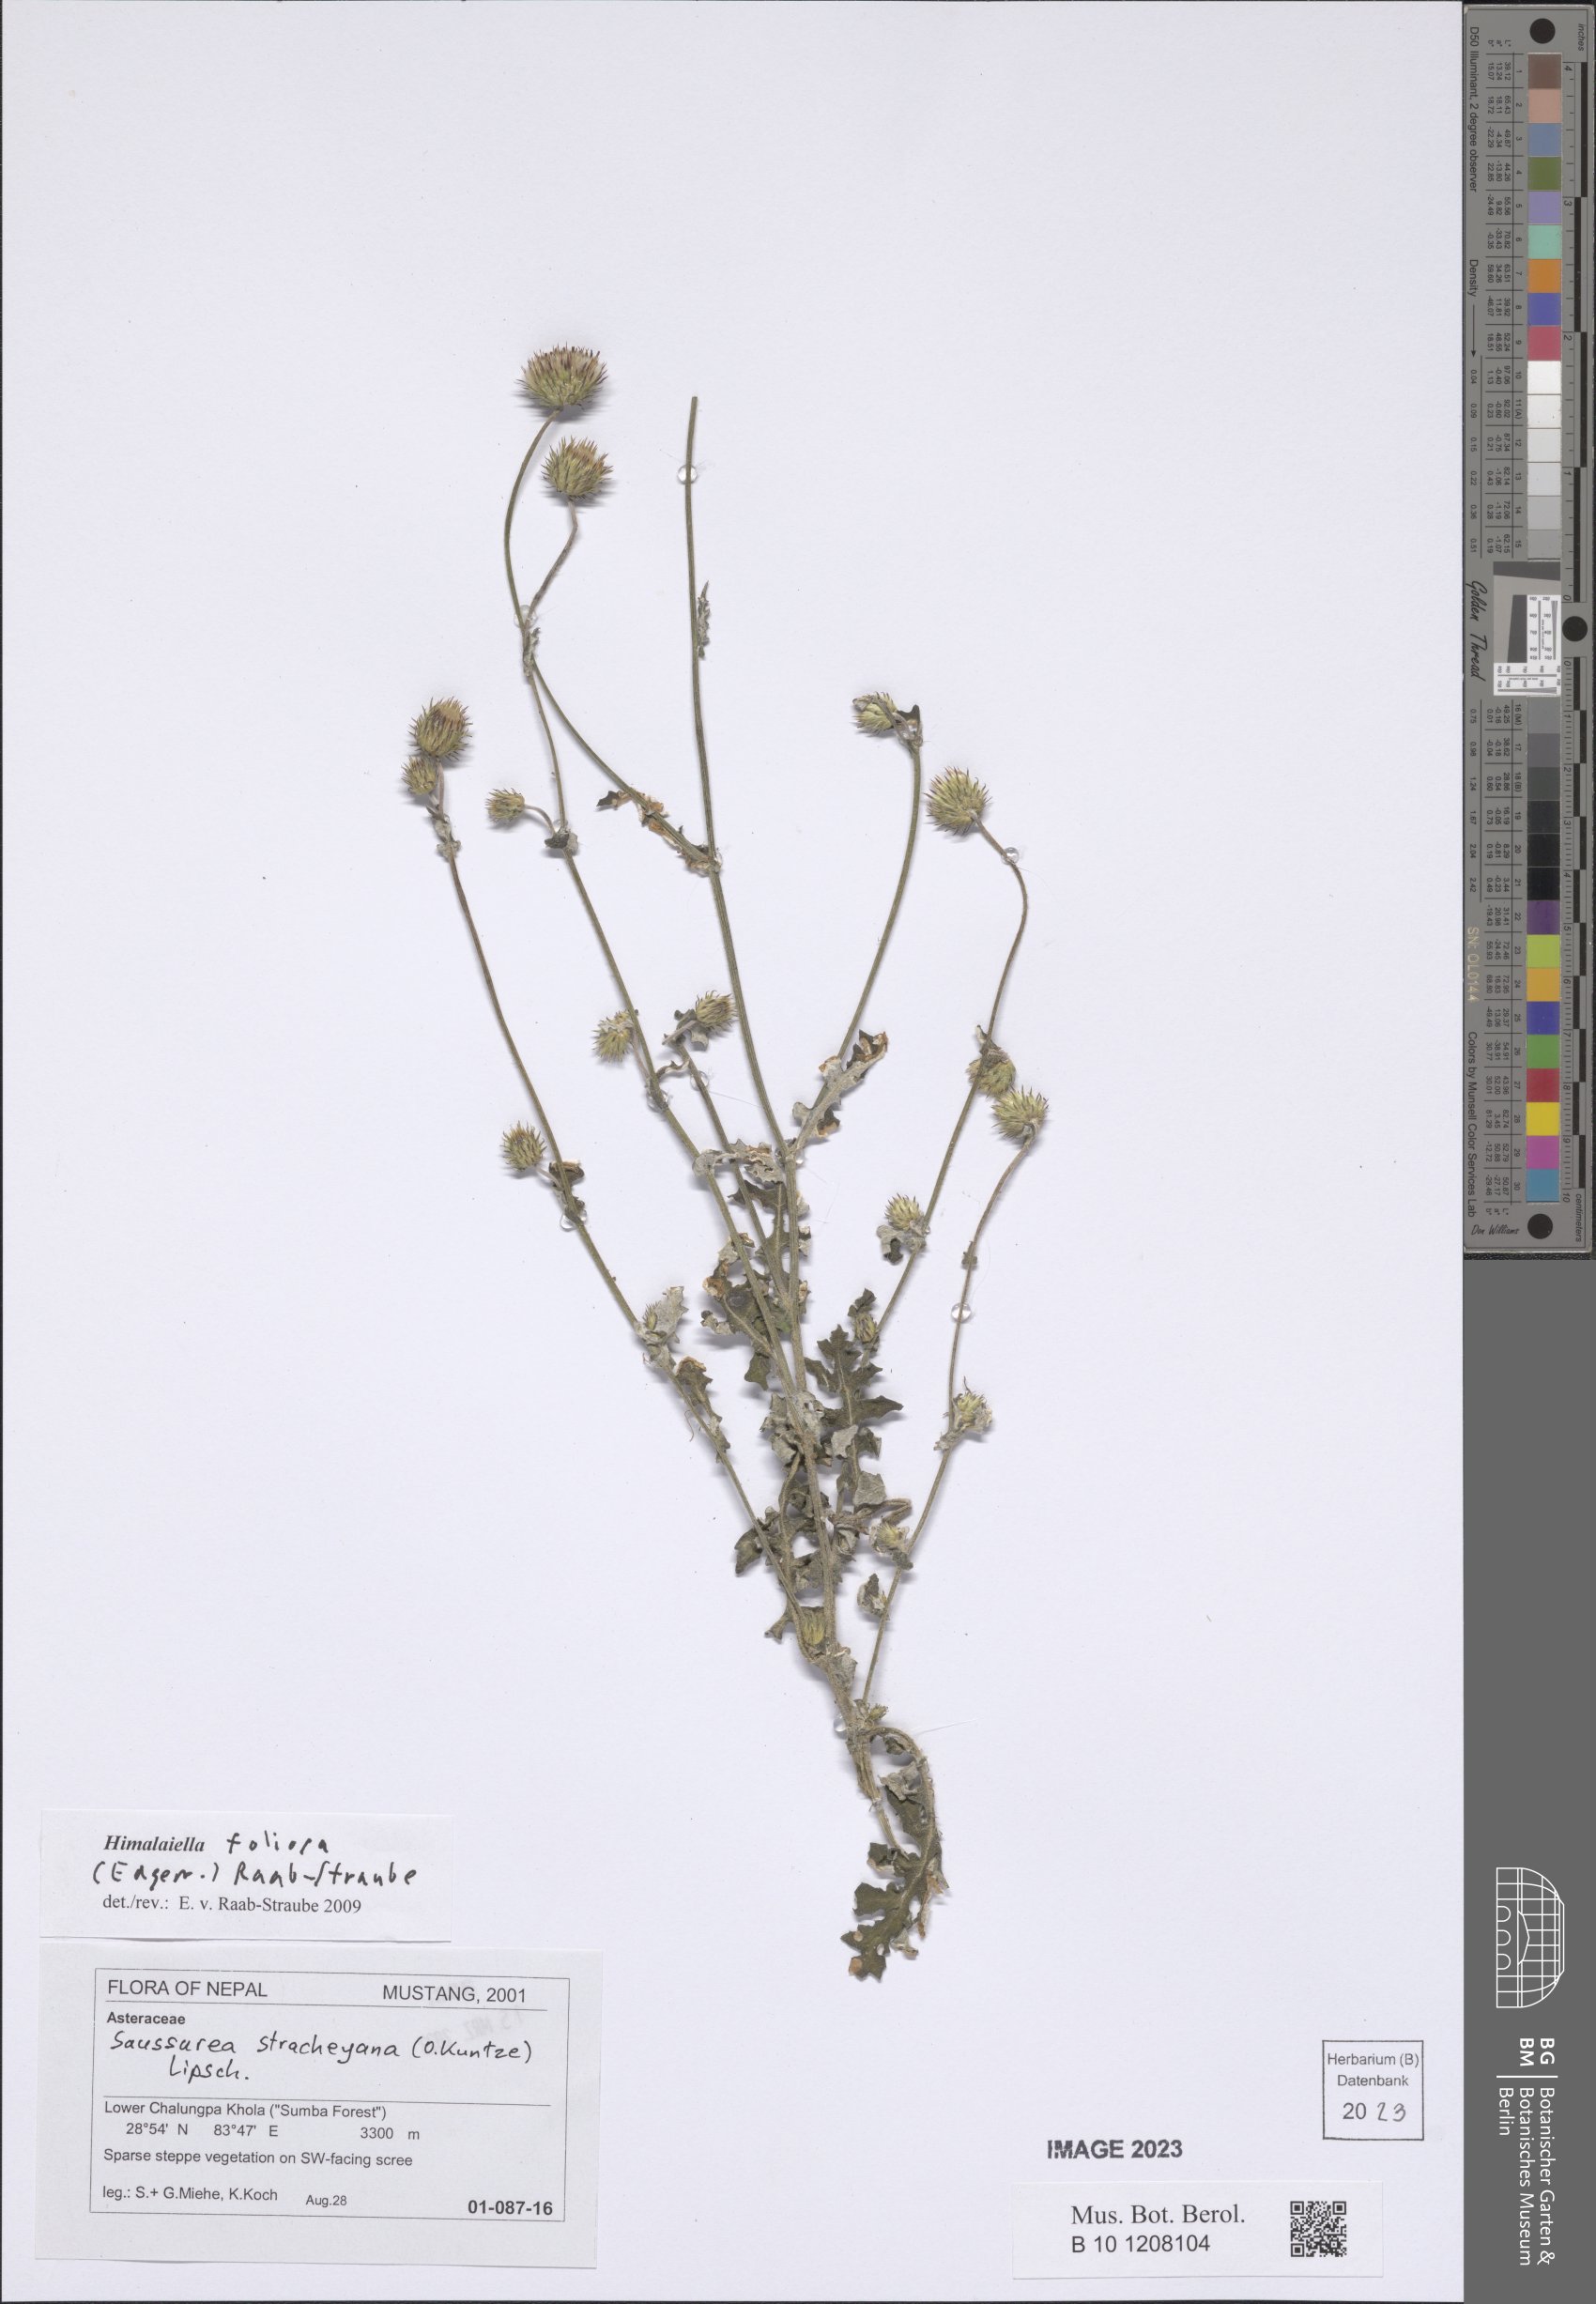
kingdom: Plantae
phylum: Tracheophyta
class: Magnoliopsida
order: Asterales
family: Asteraceae
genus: Saussurea
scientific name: Saussurea edgeworthii
